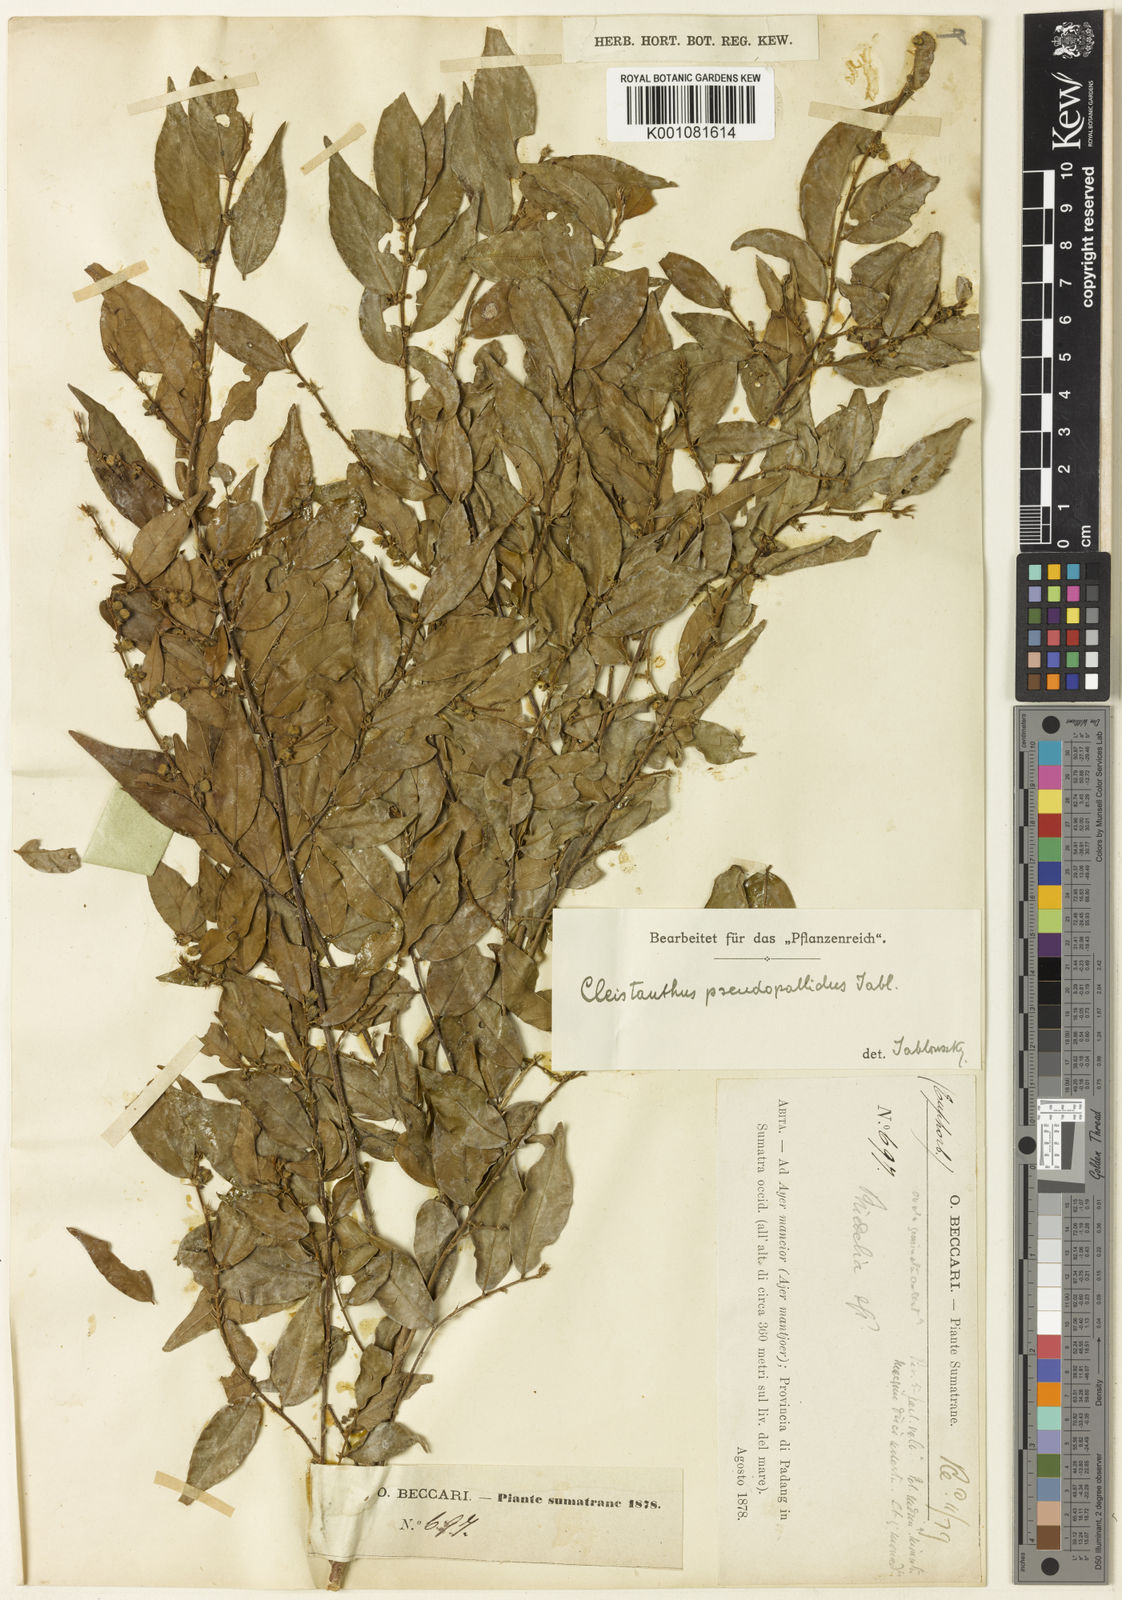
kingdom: Plantae
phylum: Tracheophyta
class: Magnoliopsida
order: Malpighiales
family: Phyllanthaceae
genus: Cleistanthus
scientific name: Cleistanthus pseudopallidus
